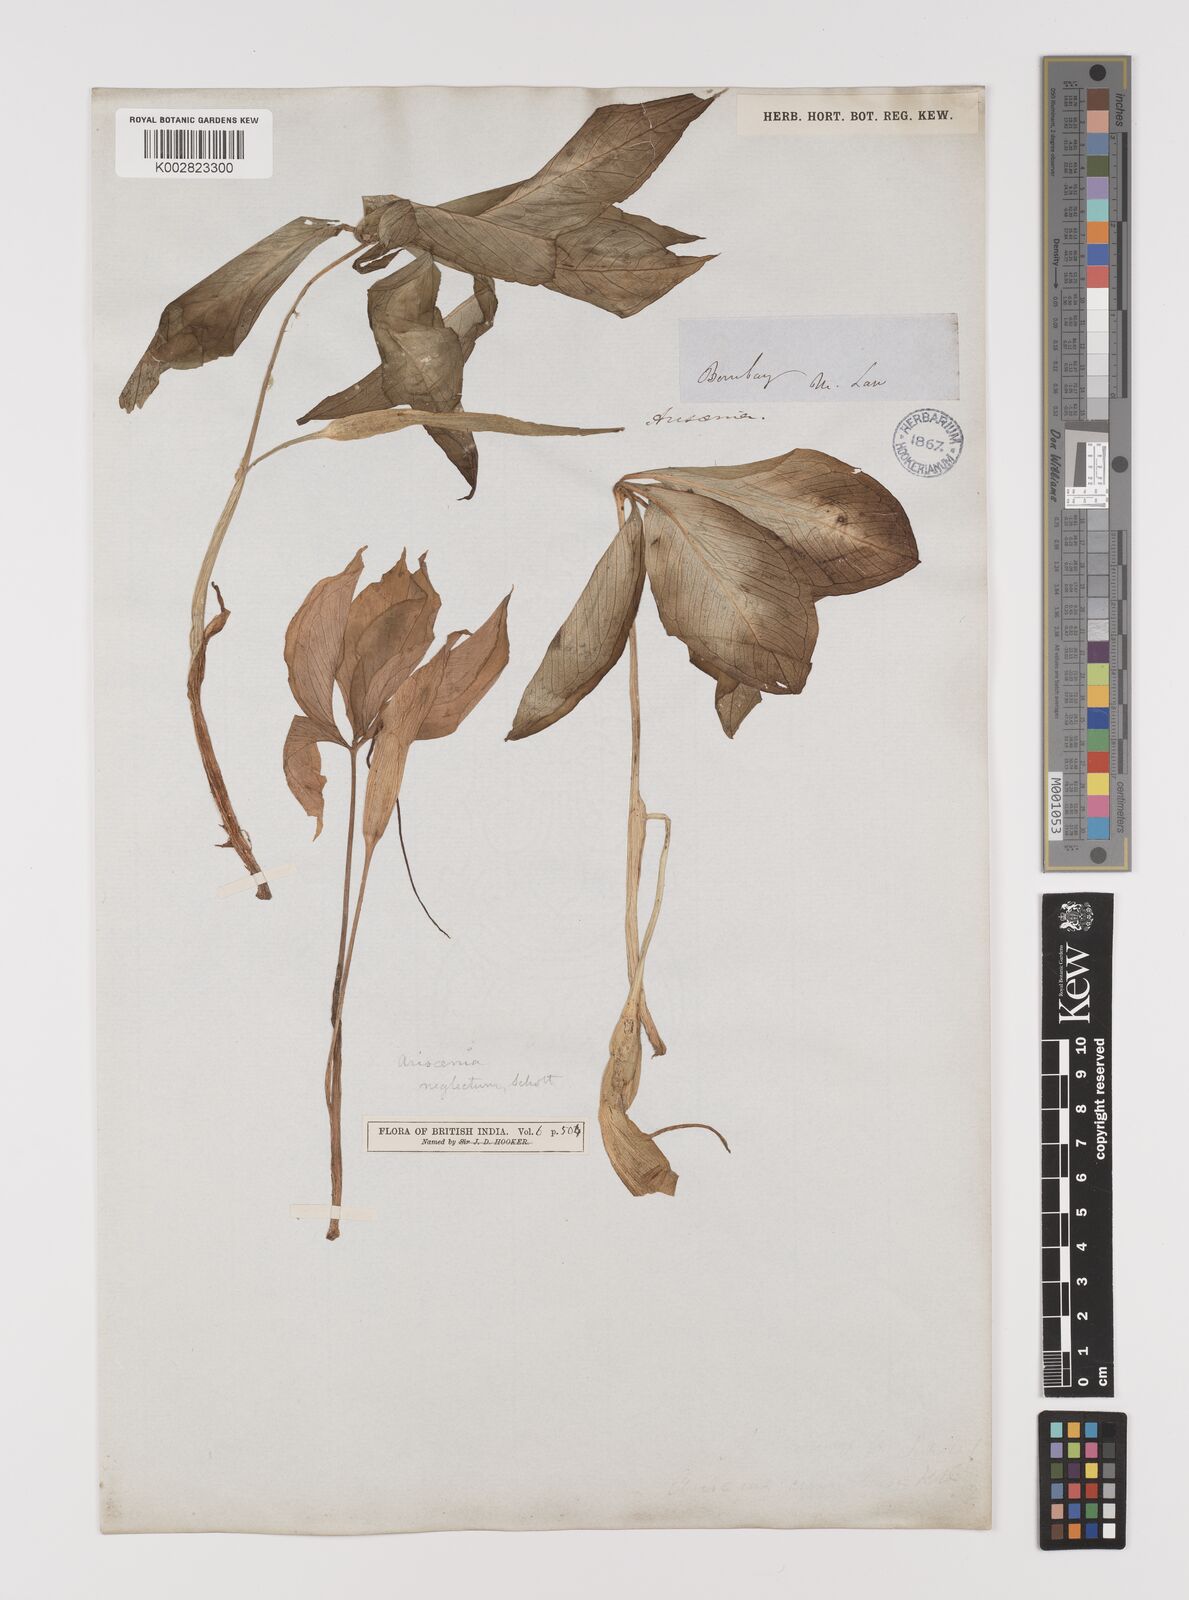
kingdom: Plantae
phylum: Tracheophyta
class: Liliopsida
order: Alismatales
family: Araceae
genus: Arisaema
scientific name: Arisaema tortuosum
